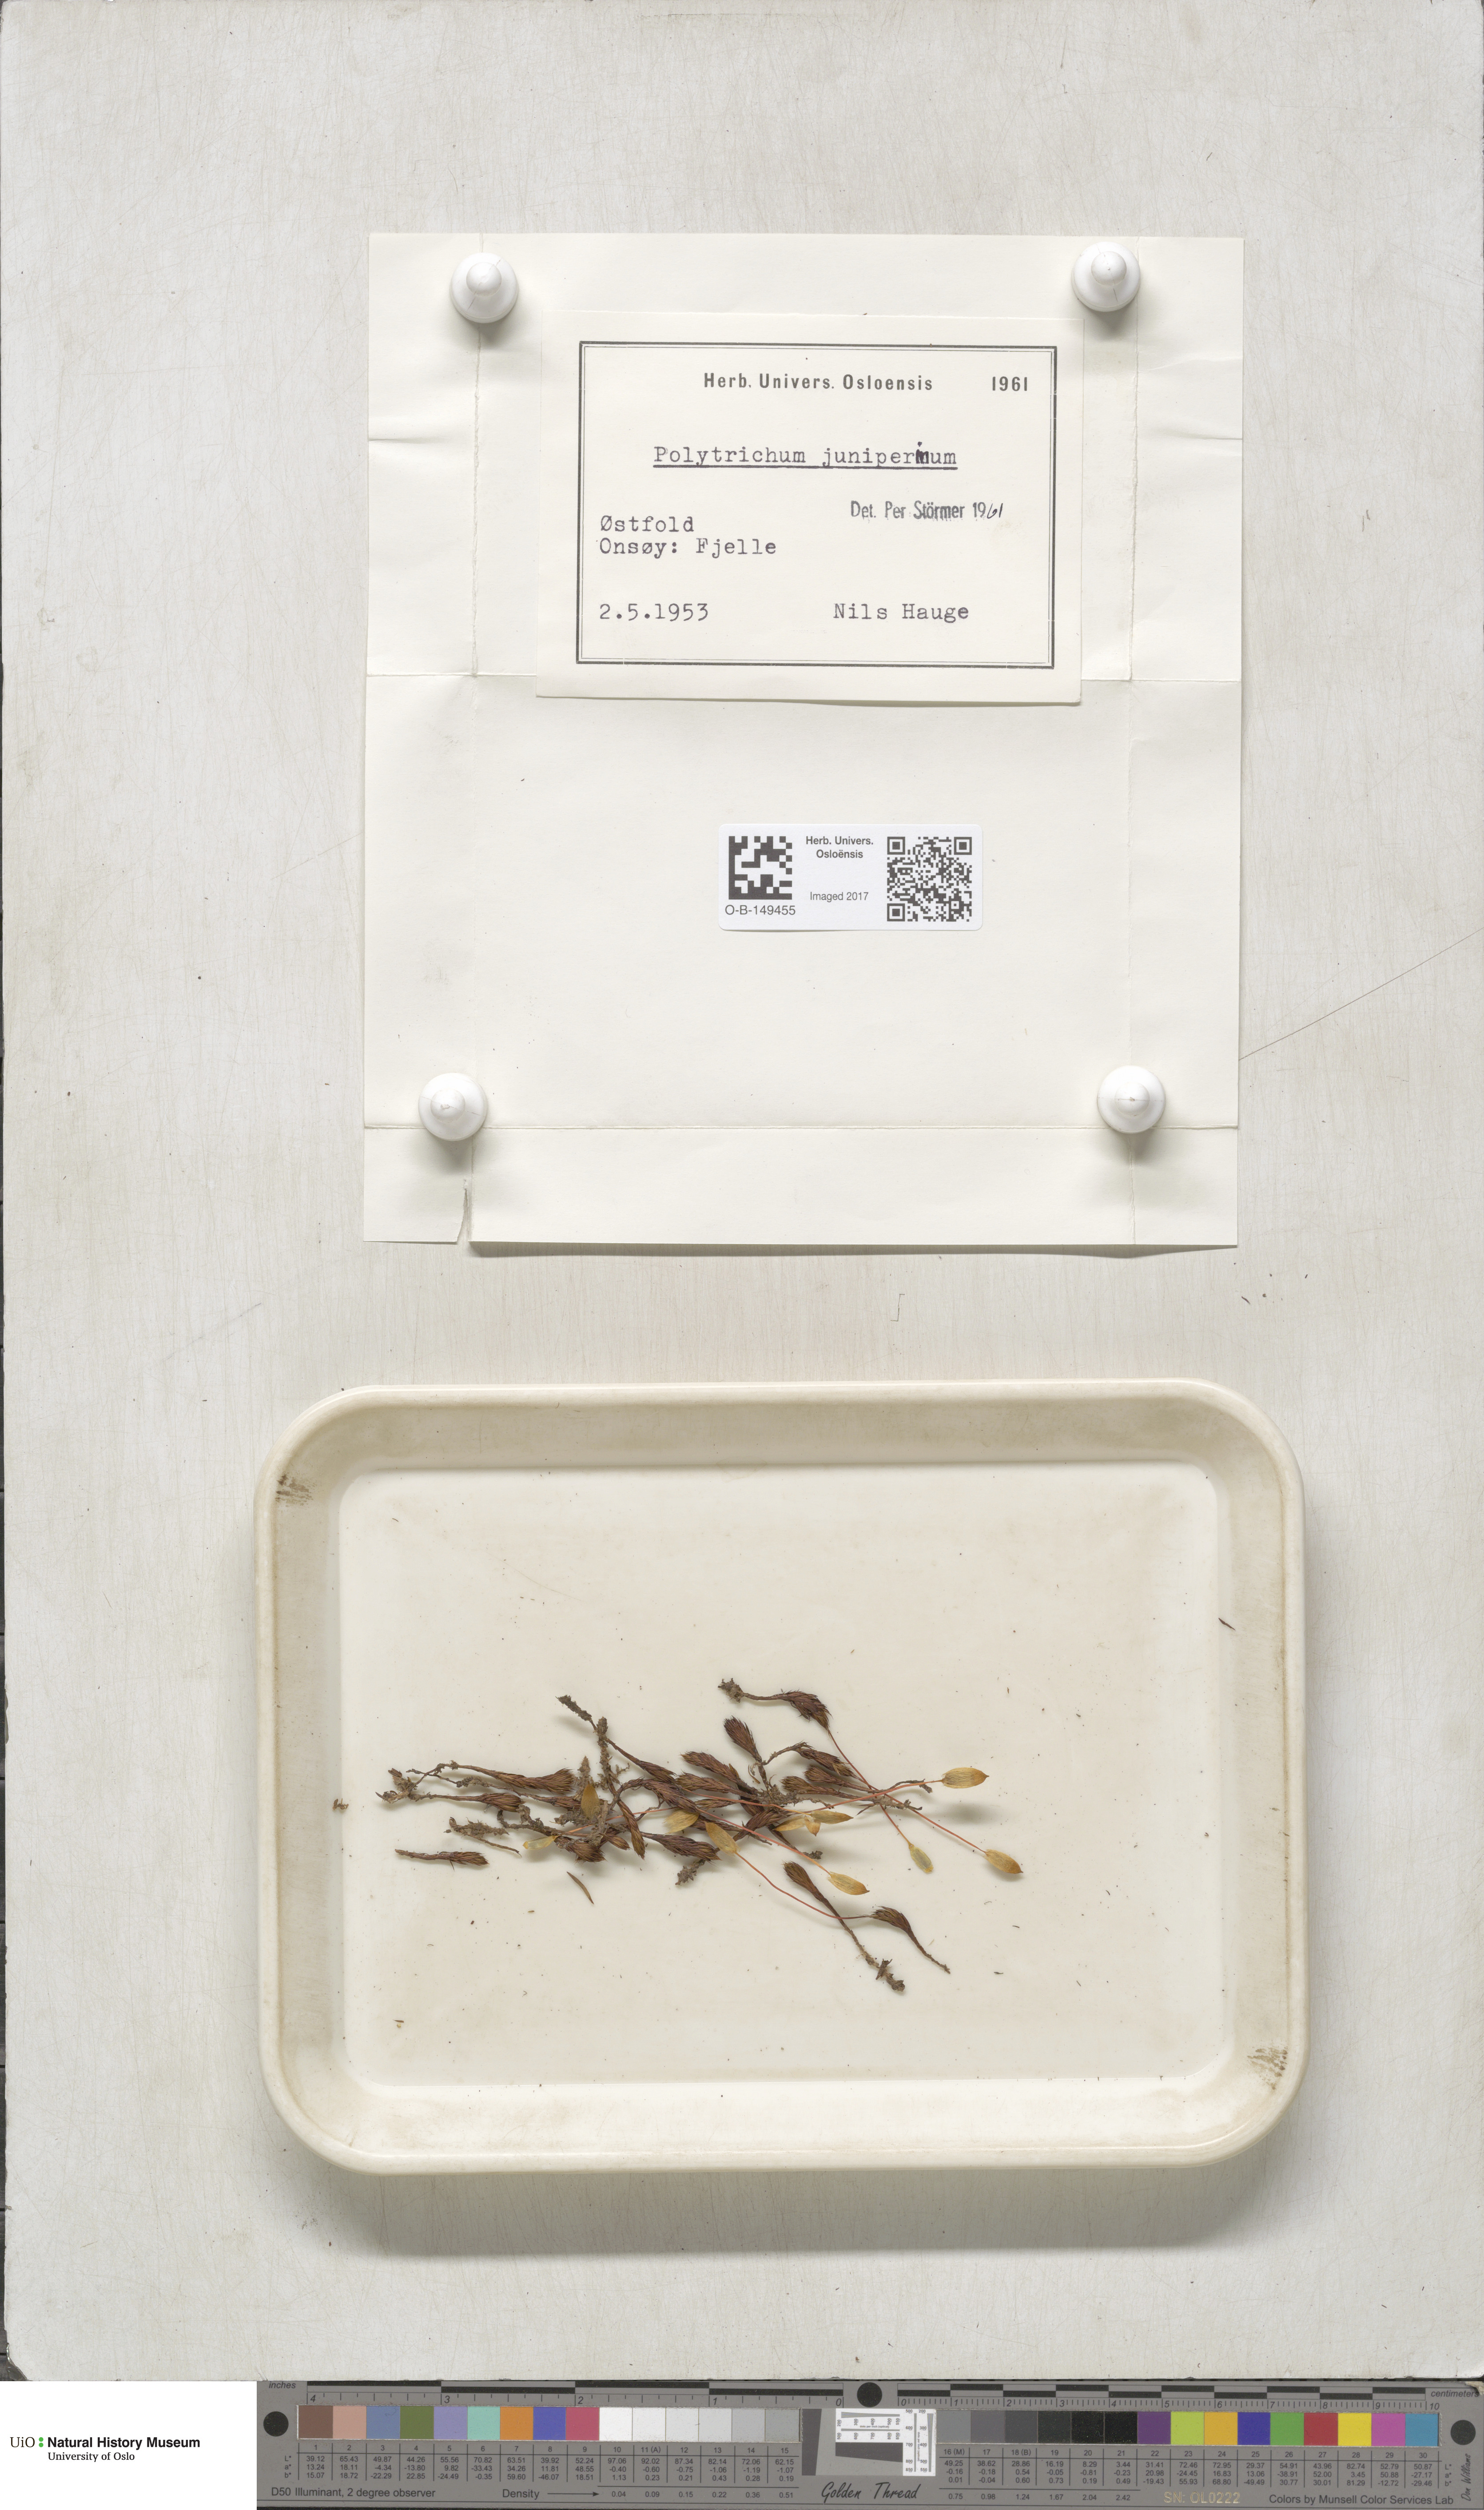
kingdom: Plantae
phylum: Bryophyta
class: Polytrichopsida
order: Polytrichales
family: Polytrichaceae
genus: Polytrichum
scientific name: Polytrichum juniperinum
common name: Juniper haircap moss
